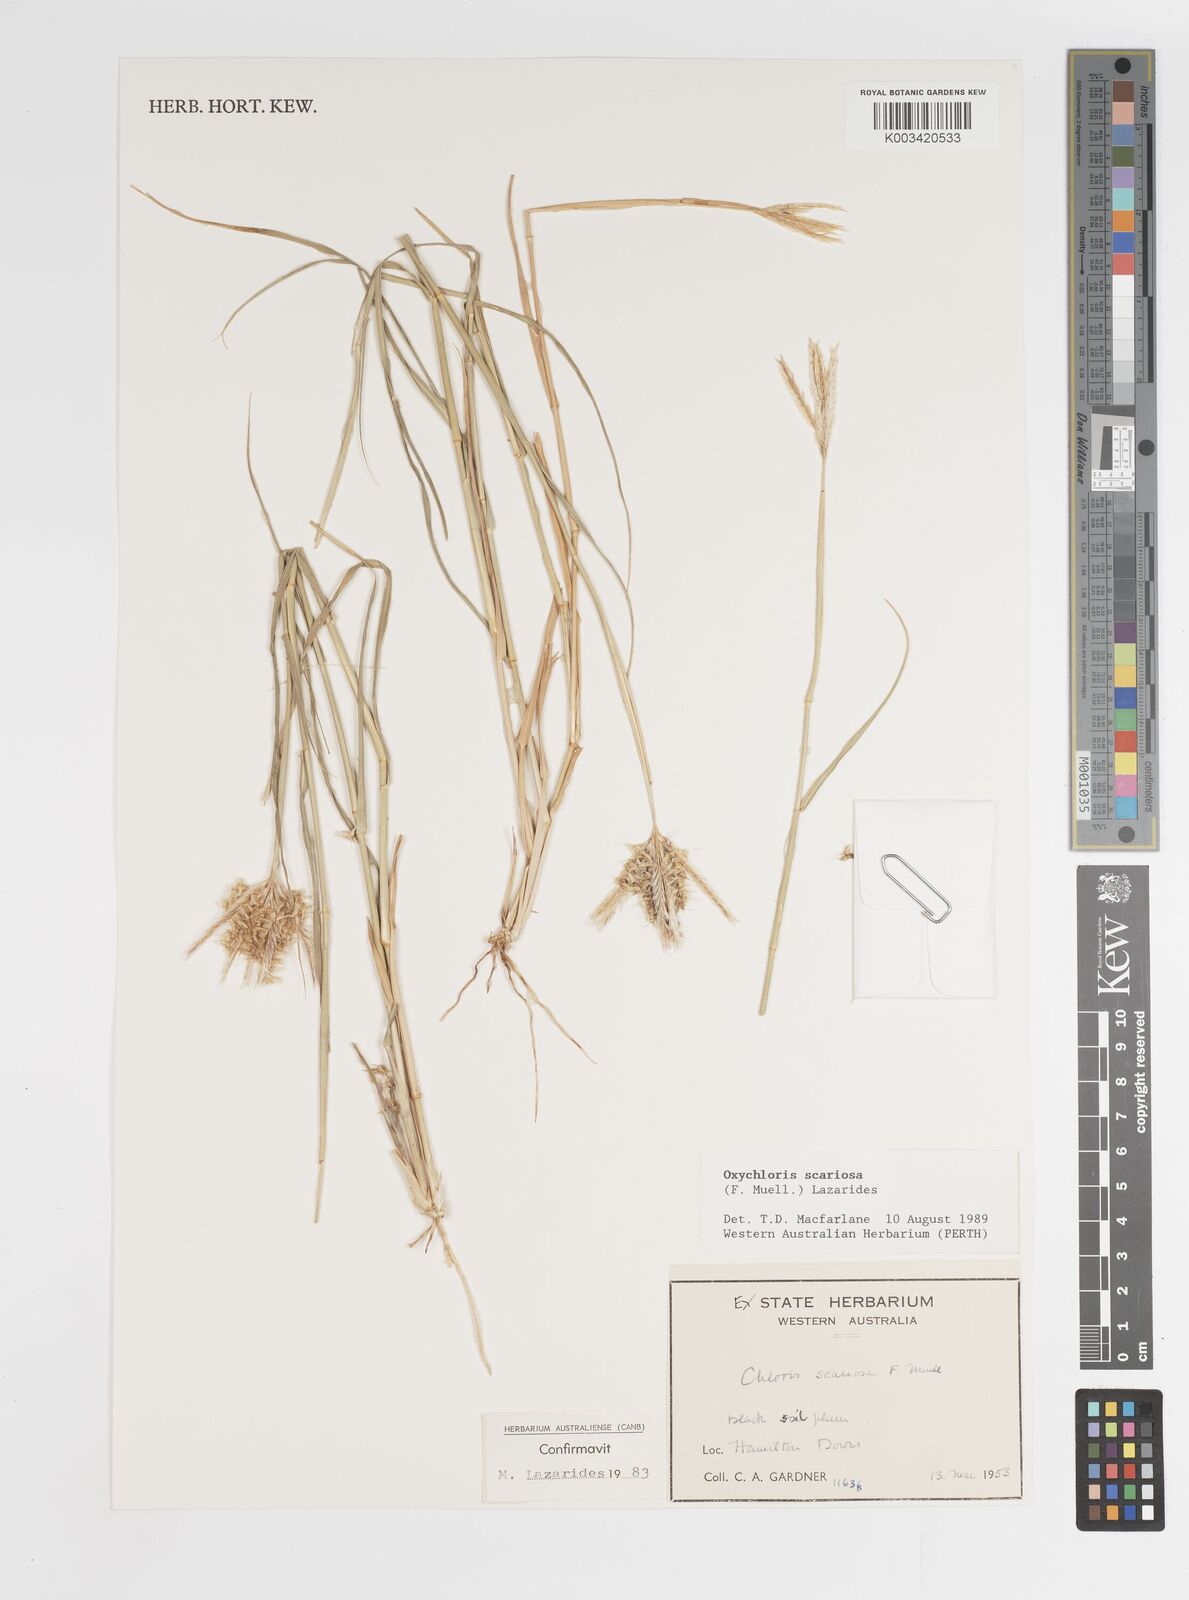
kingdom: Plantae
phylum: Tracheophyta
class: Liliopsida
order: Poales
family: Poaceae
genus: Oxychloris
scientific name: Oxychloris scariosa
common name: Winged windmill grass
